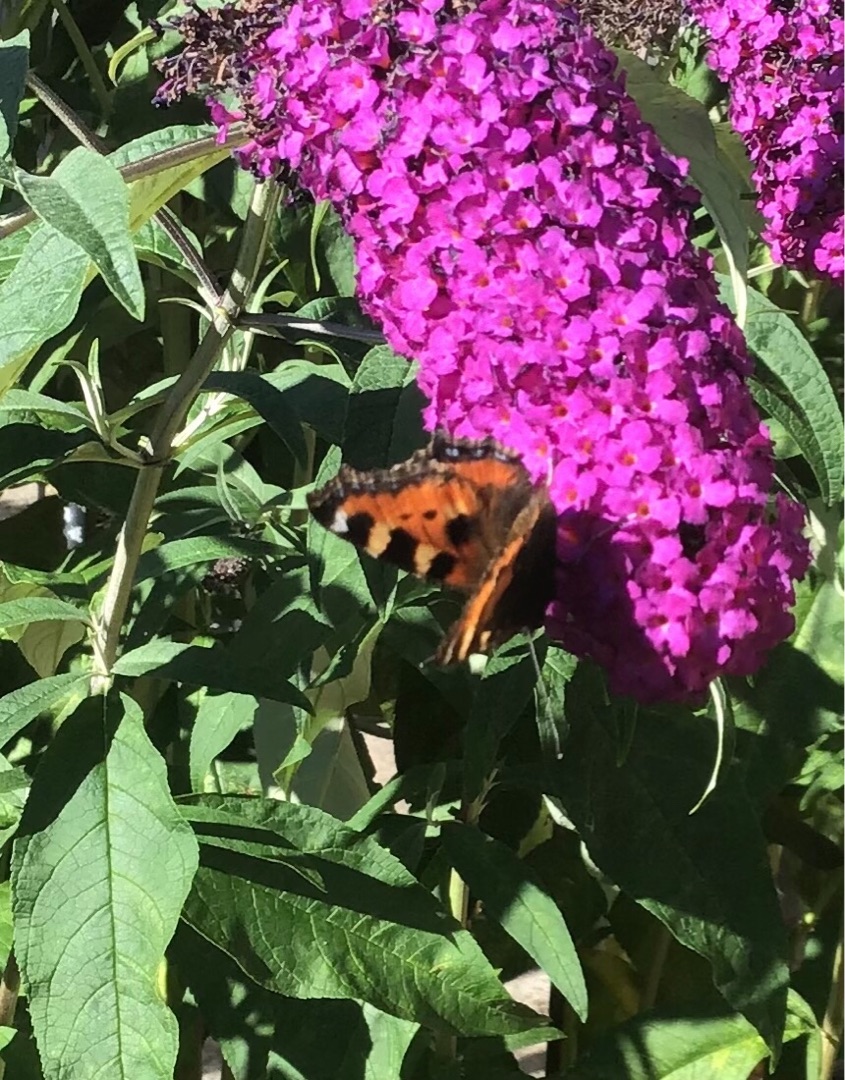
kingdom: Animalia
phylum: Arthropoda
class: Insecta
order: Lepidoptera
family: Nymphalidae
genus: Aglais
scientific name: Aglais urticae
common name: Nældens takvinge
